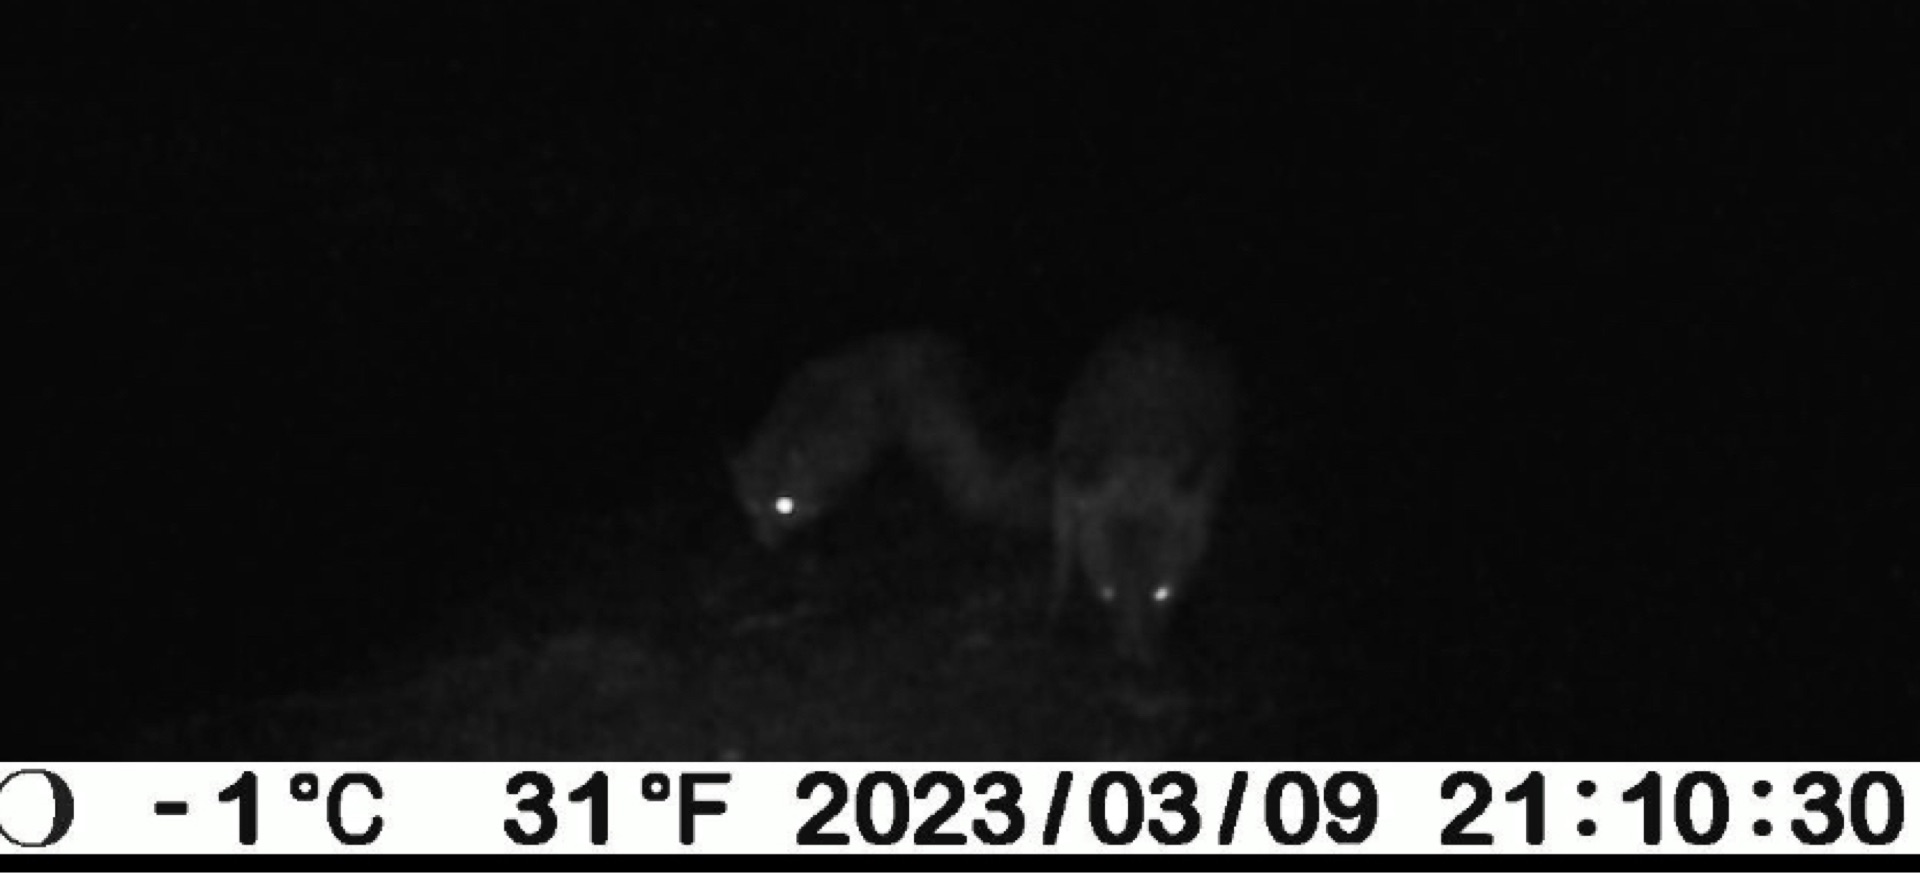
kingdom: Animalia
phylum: Chordata
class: Mammalia
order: Carnivora
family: Canidae
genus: Vulpes
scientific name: Vulpes vulpes
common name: Ræv
